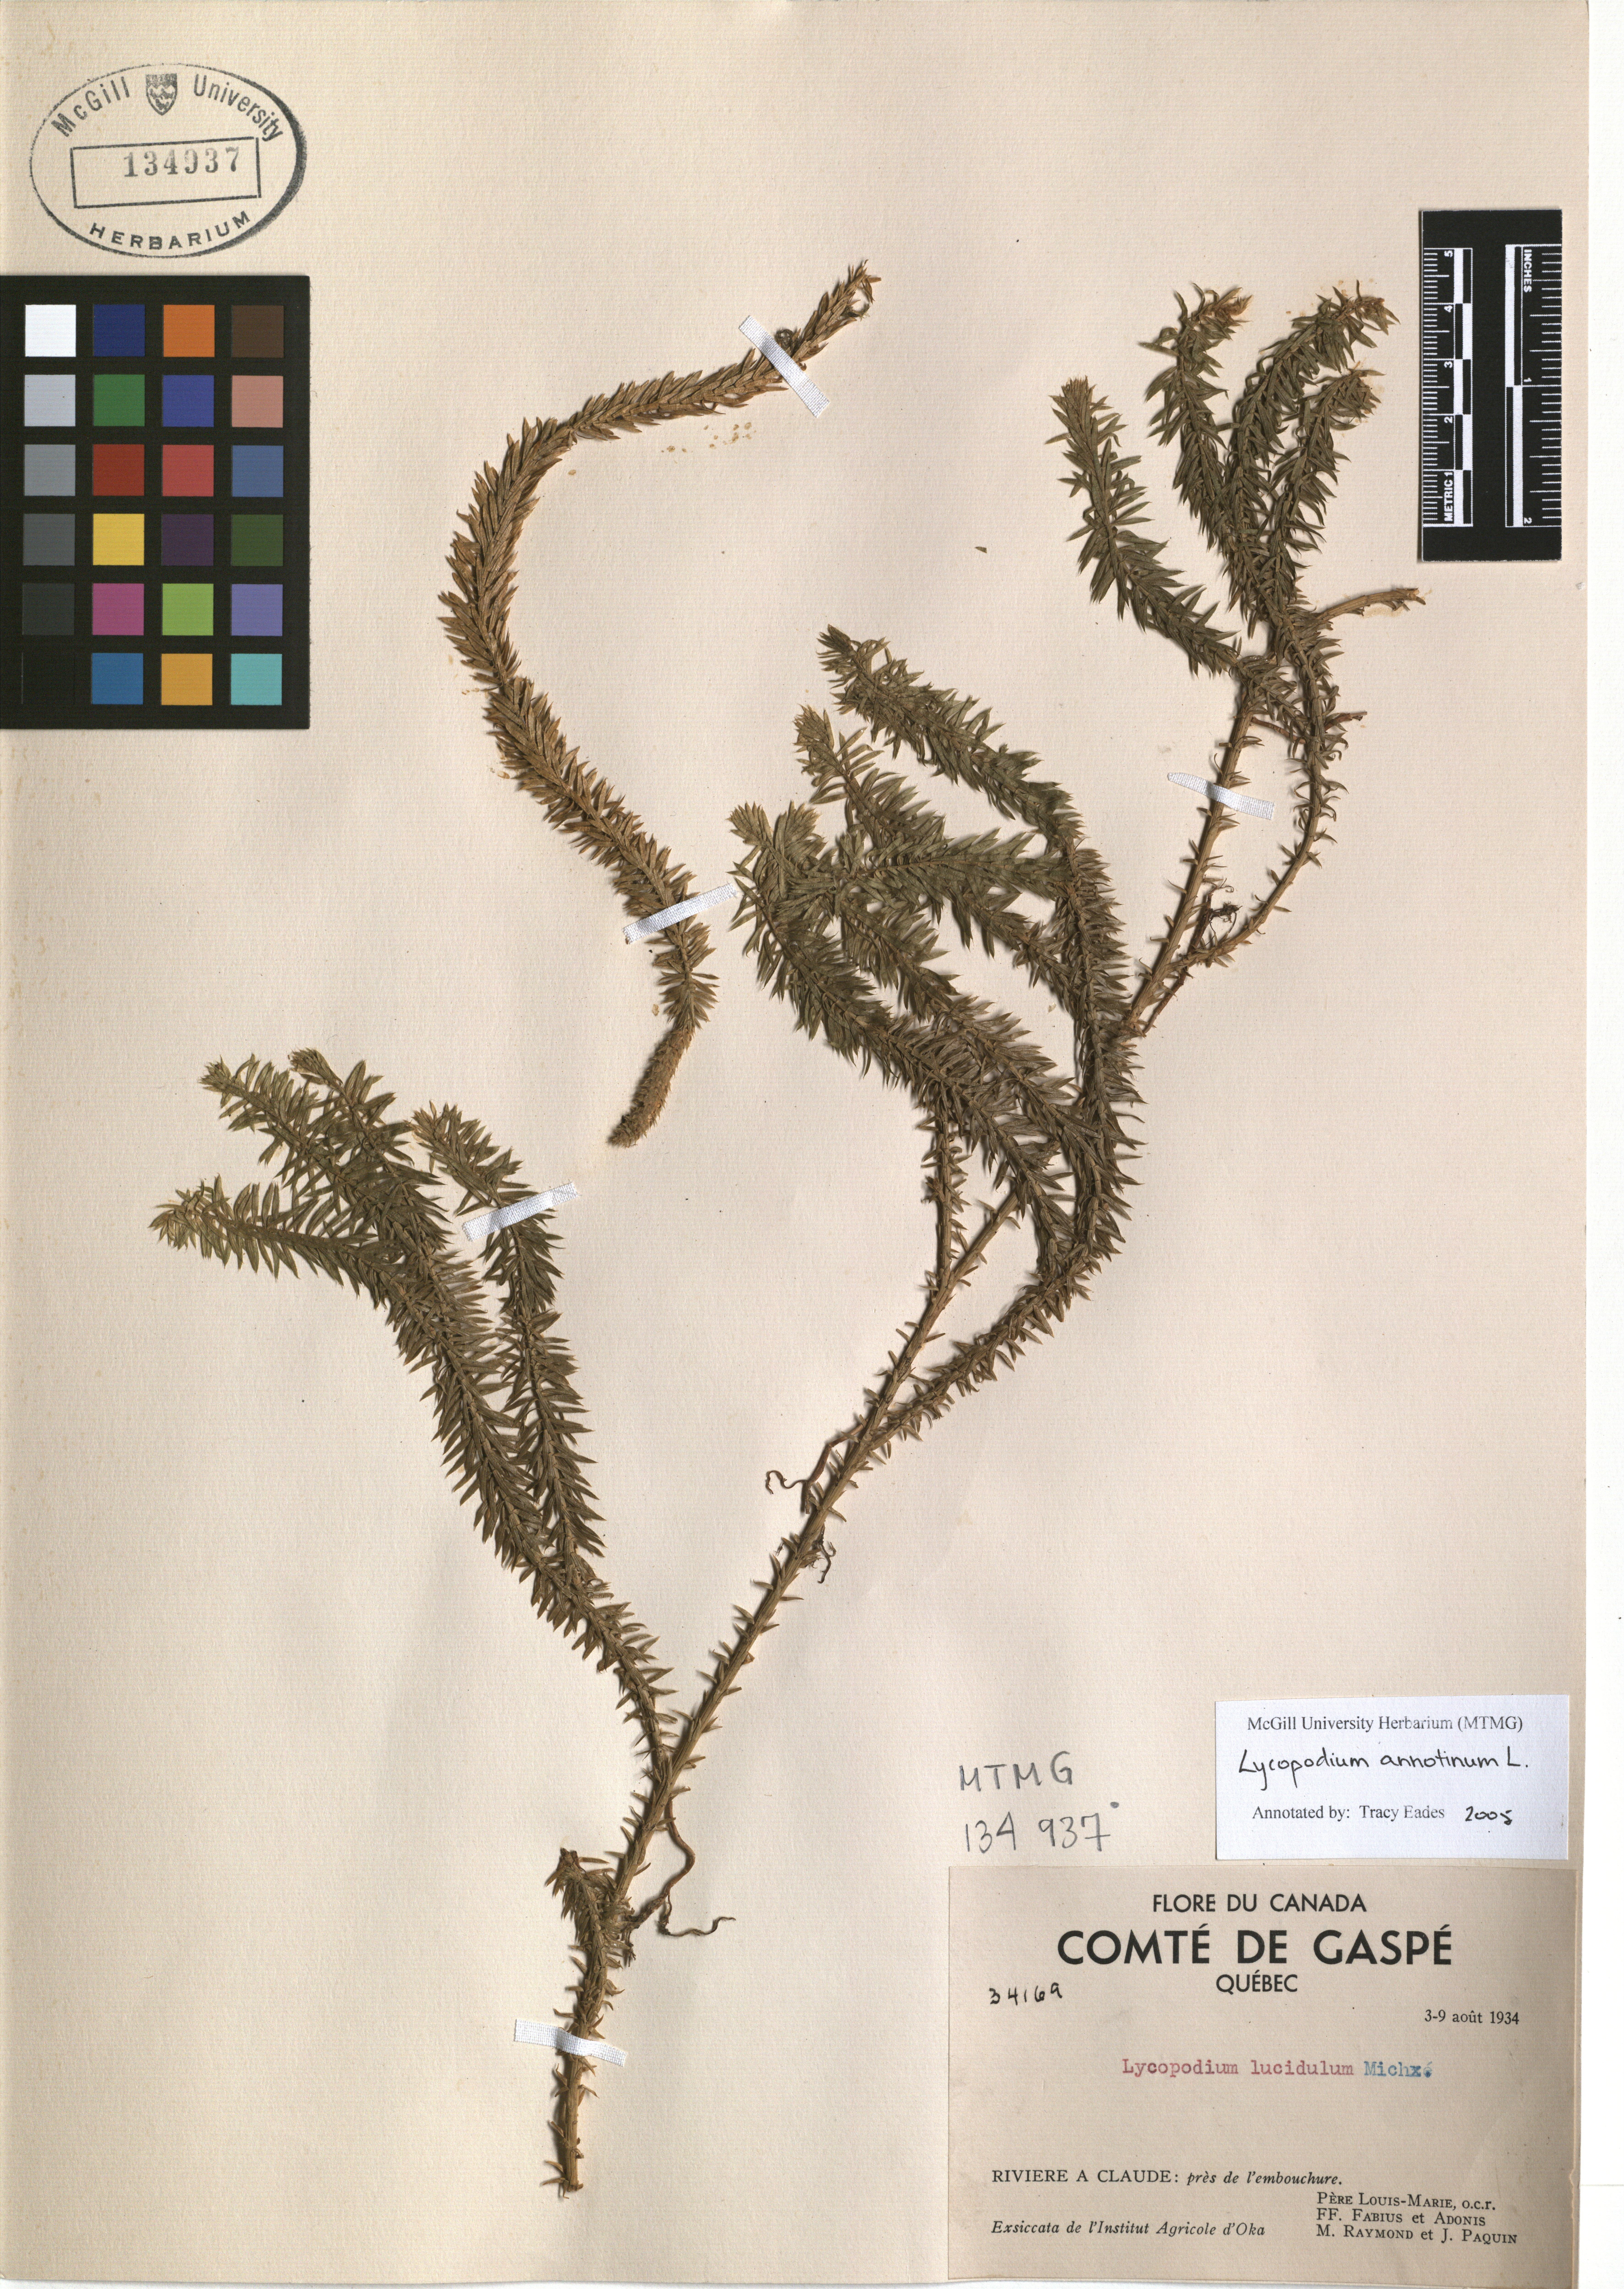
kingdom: Plantae
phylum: Tracheophyta
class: Lycopodiopsida
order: Lycopodiales
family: Lycopodiaceae
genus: Spinulum
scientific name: Spinulum annotinum
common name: Interrupted club-moss
